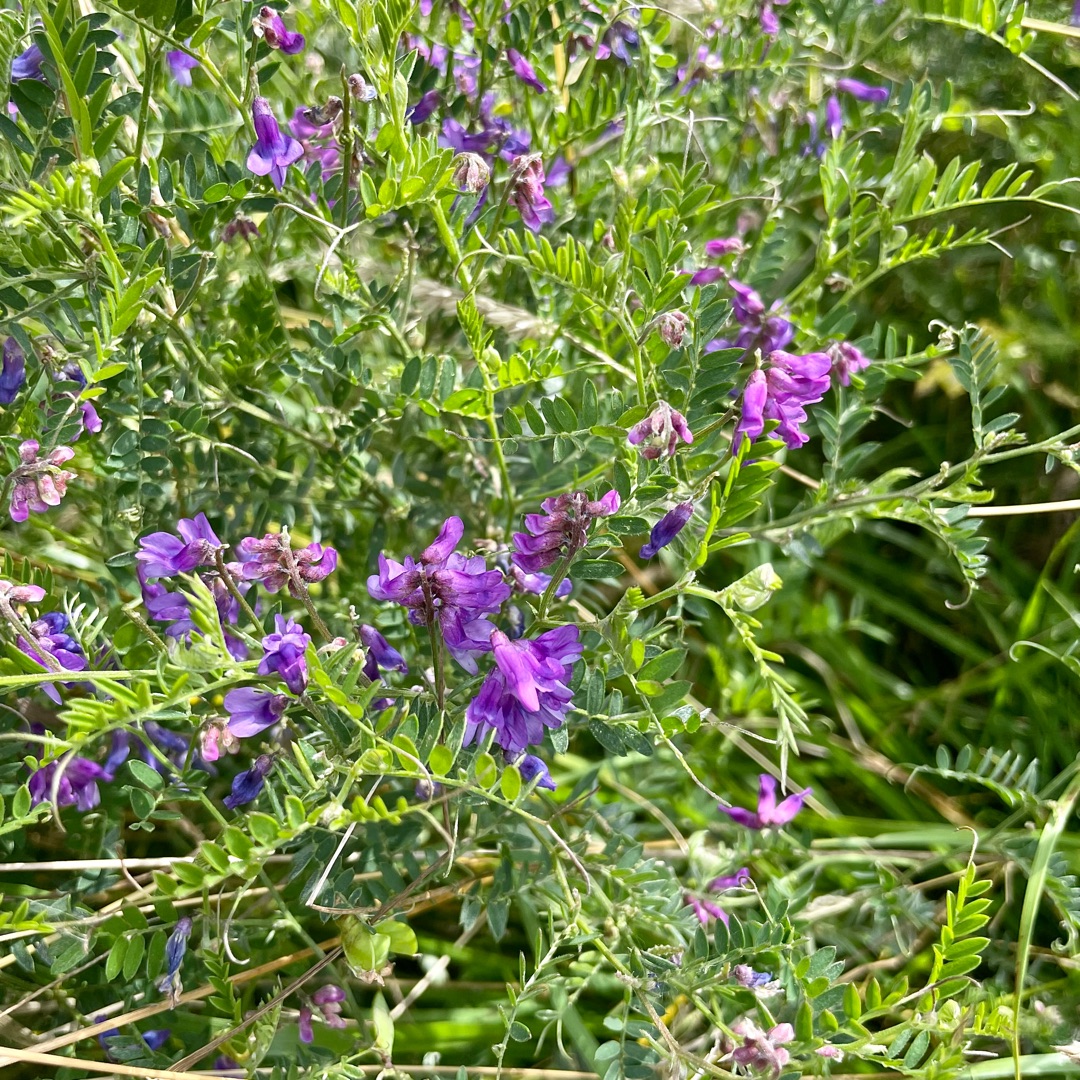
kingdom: Plantae
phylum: Tracheophyta
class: Magnoliopsida
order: Fabales
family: Fabaceae
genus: Vicia
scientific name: Vicia cracca
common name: Muse-vikke
